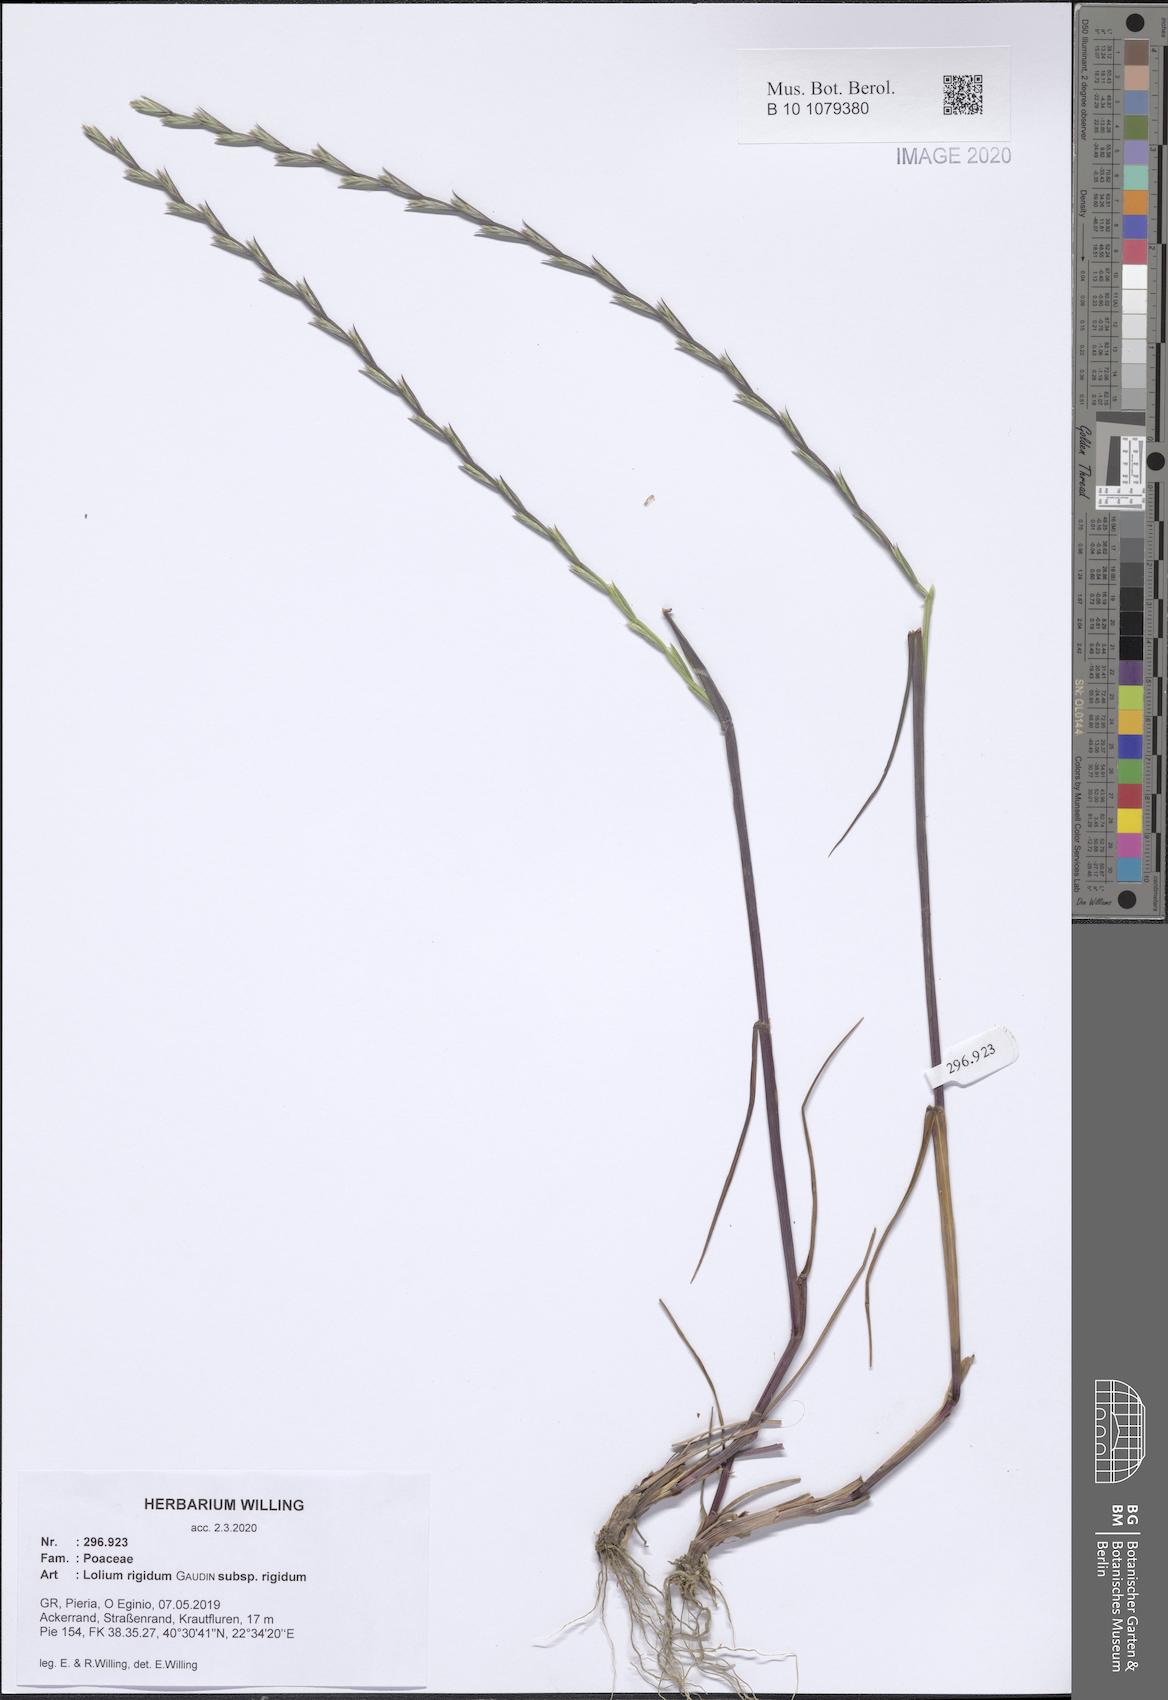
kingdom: Plantae
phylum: Tracheophyta
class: Liliopsida
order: Poales
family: Poaceae
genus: Lolium
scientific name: Lolium rigidum
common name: Wimmera ryegrass
